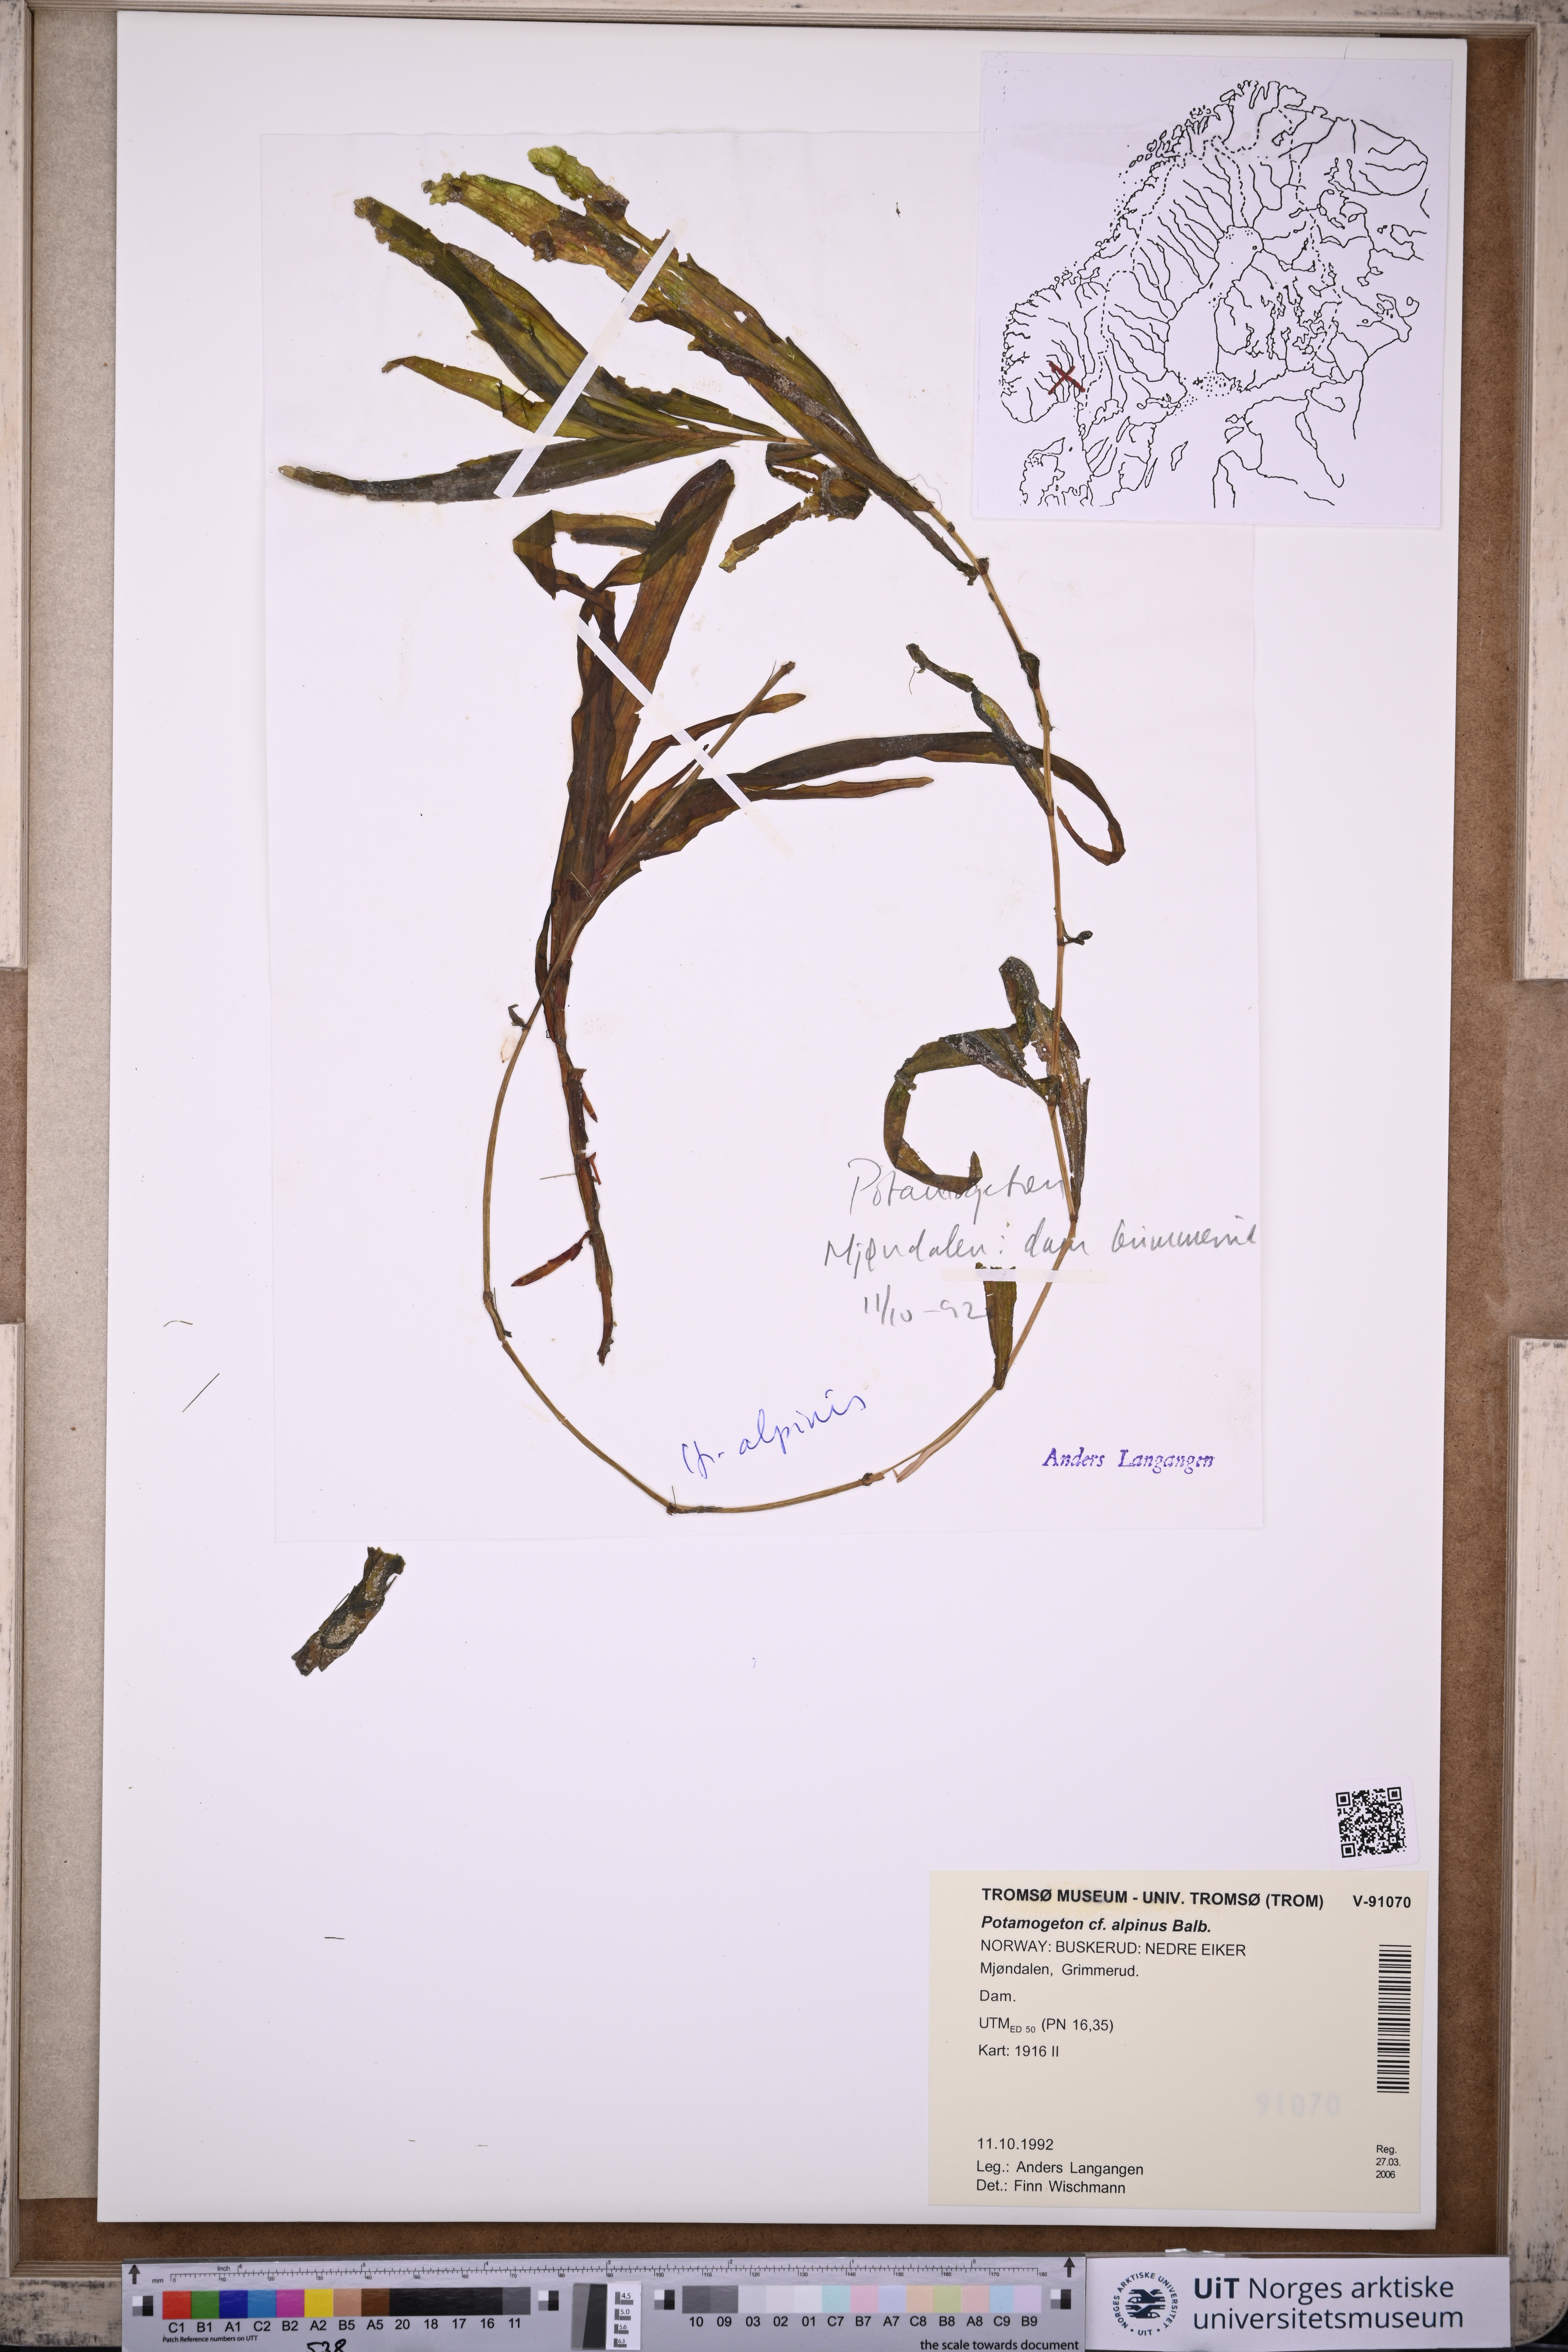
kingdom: Plantae
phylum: Tracheophyta
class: Liliopsida
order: Alismatales
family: Potamogetonaceae
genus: Potamogeton
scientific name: Potamogeton alpinus
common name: Red pondweed
